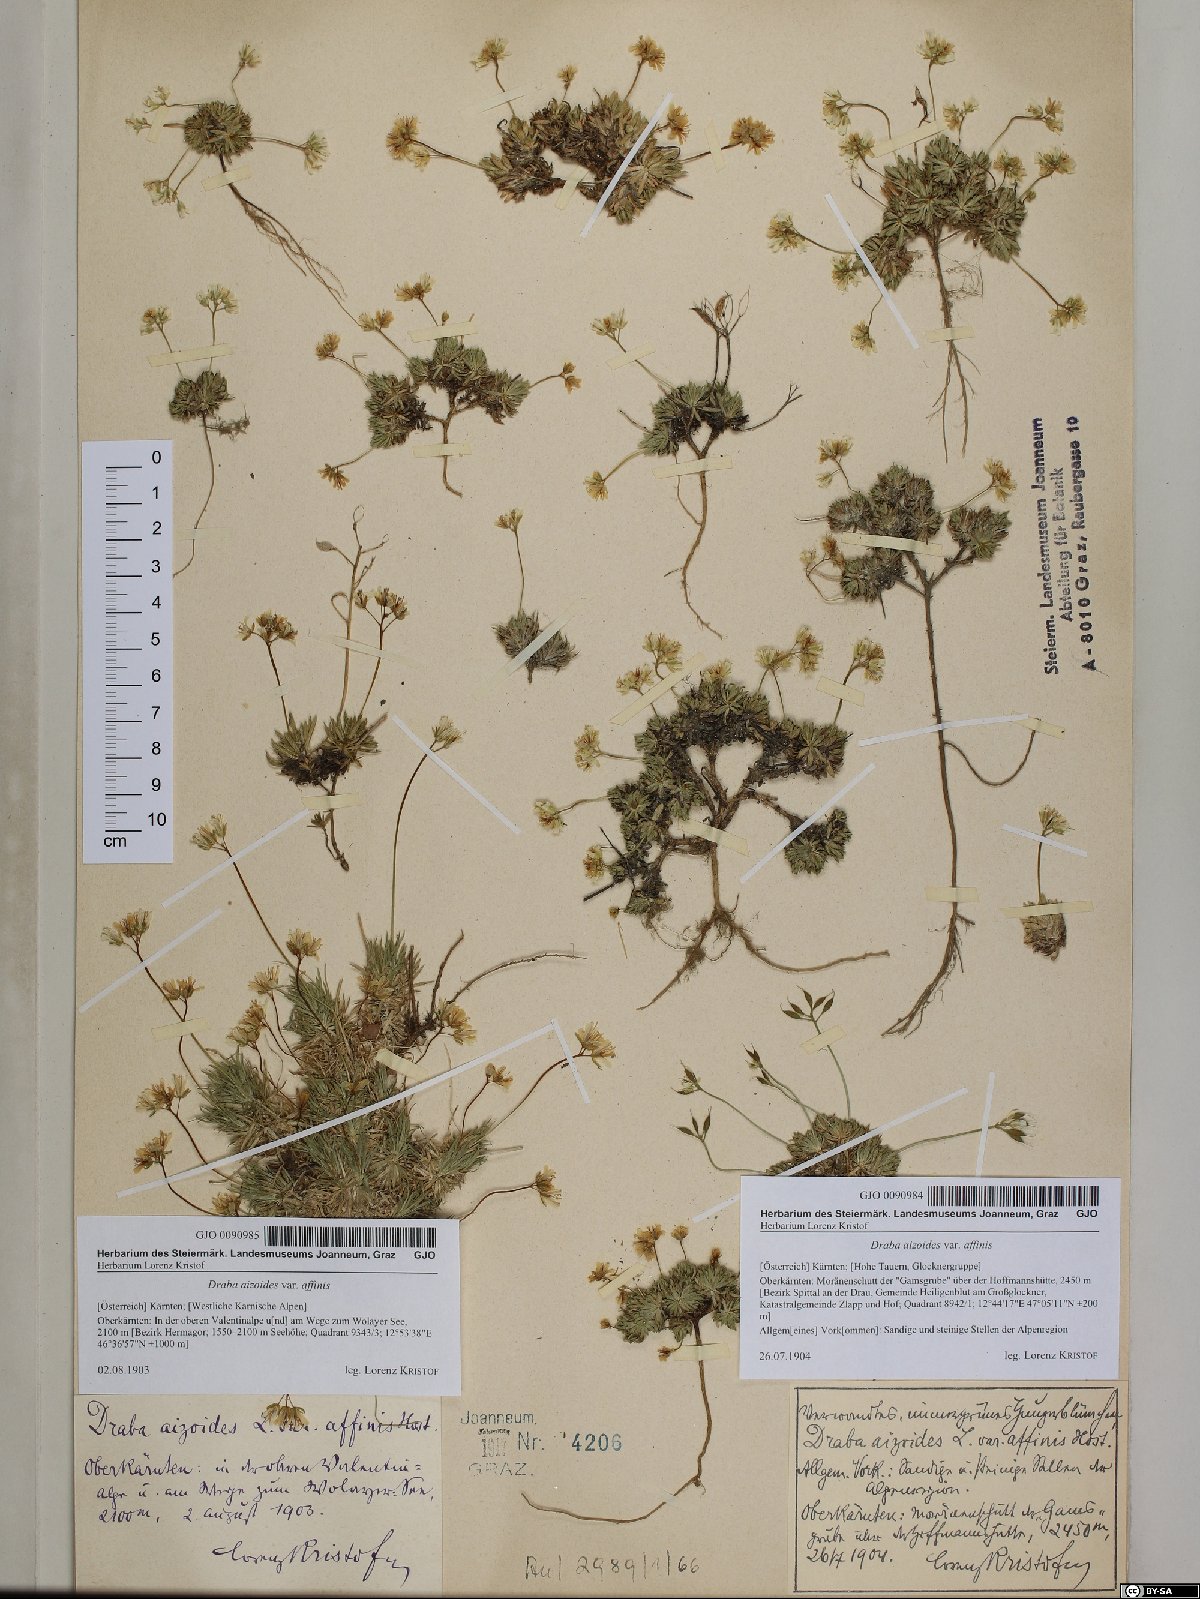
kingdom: Plantae
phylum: Tracheophyta
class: Magnoliopsida
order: Brassicales
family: Brassicaceae
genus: Draba
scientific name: Draba aizoides
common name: Yellow whitlowgrass
